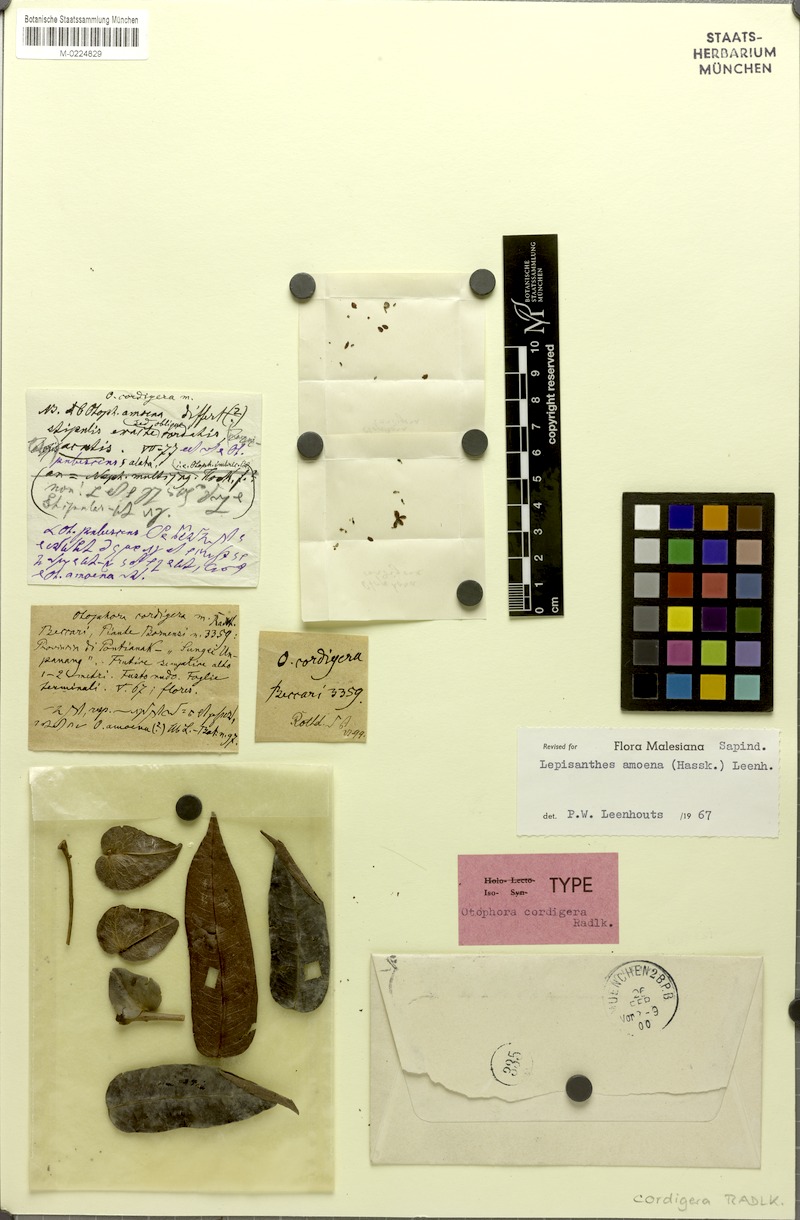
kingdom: Plantae
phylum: Tracheophyta
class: Magnoliopsida
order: Sapindales
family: Sapindaceae
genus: Lepisanthes
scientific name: Lepisanthes amoena
